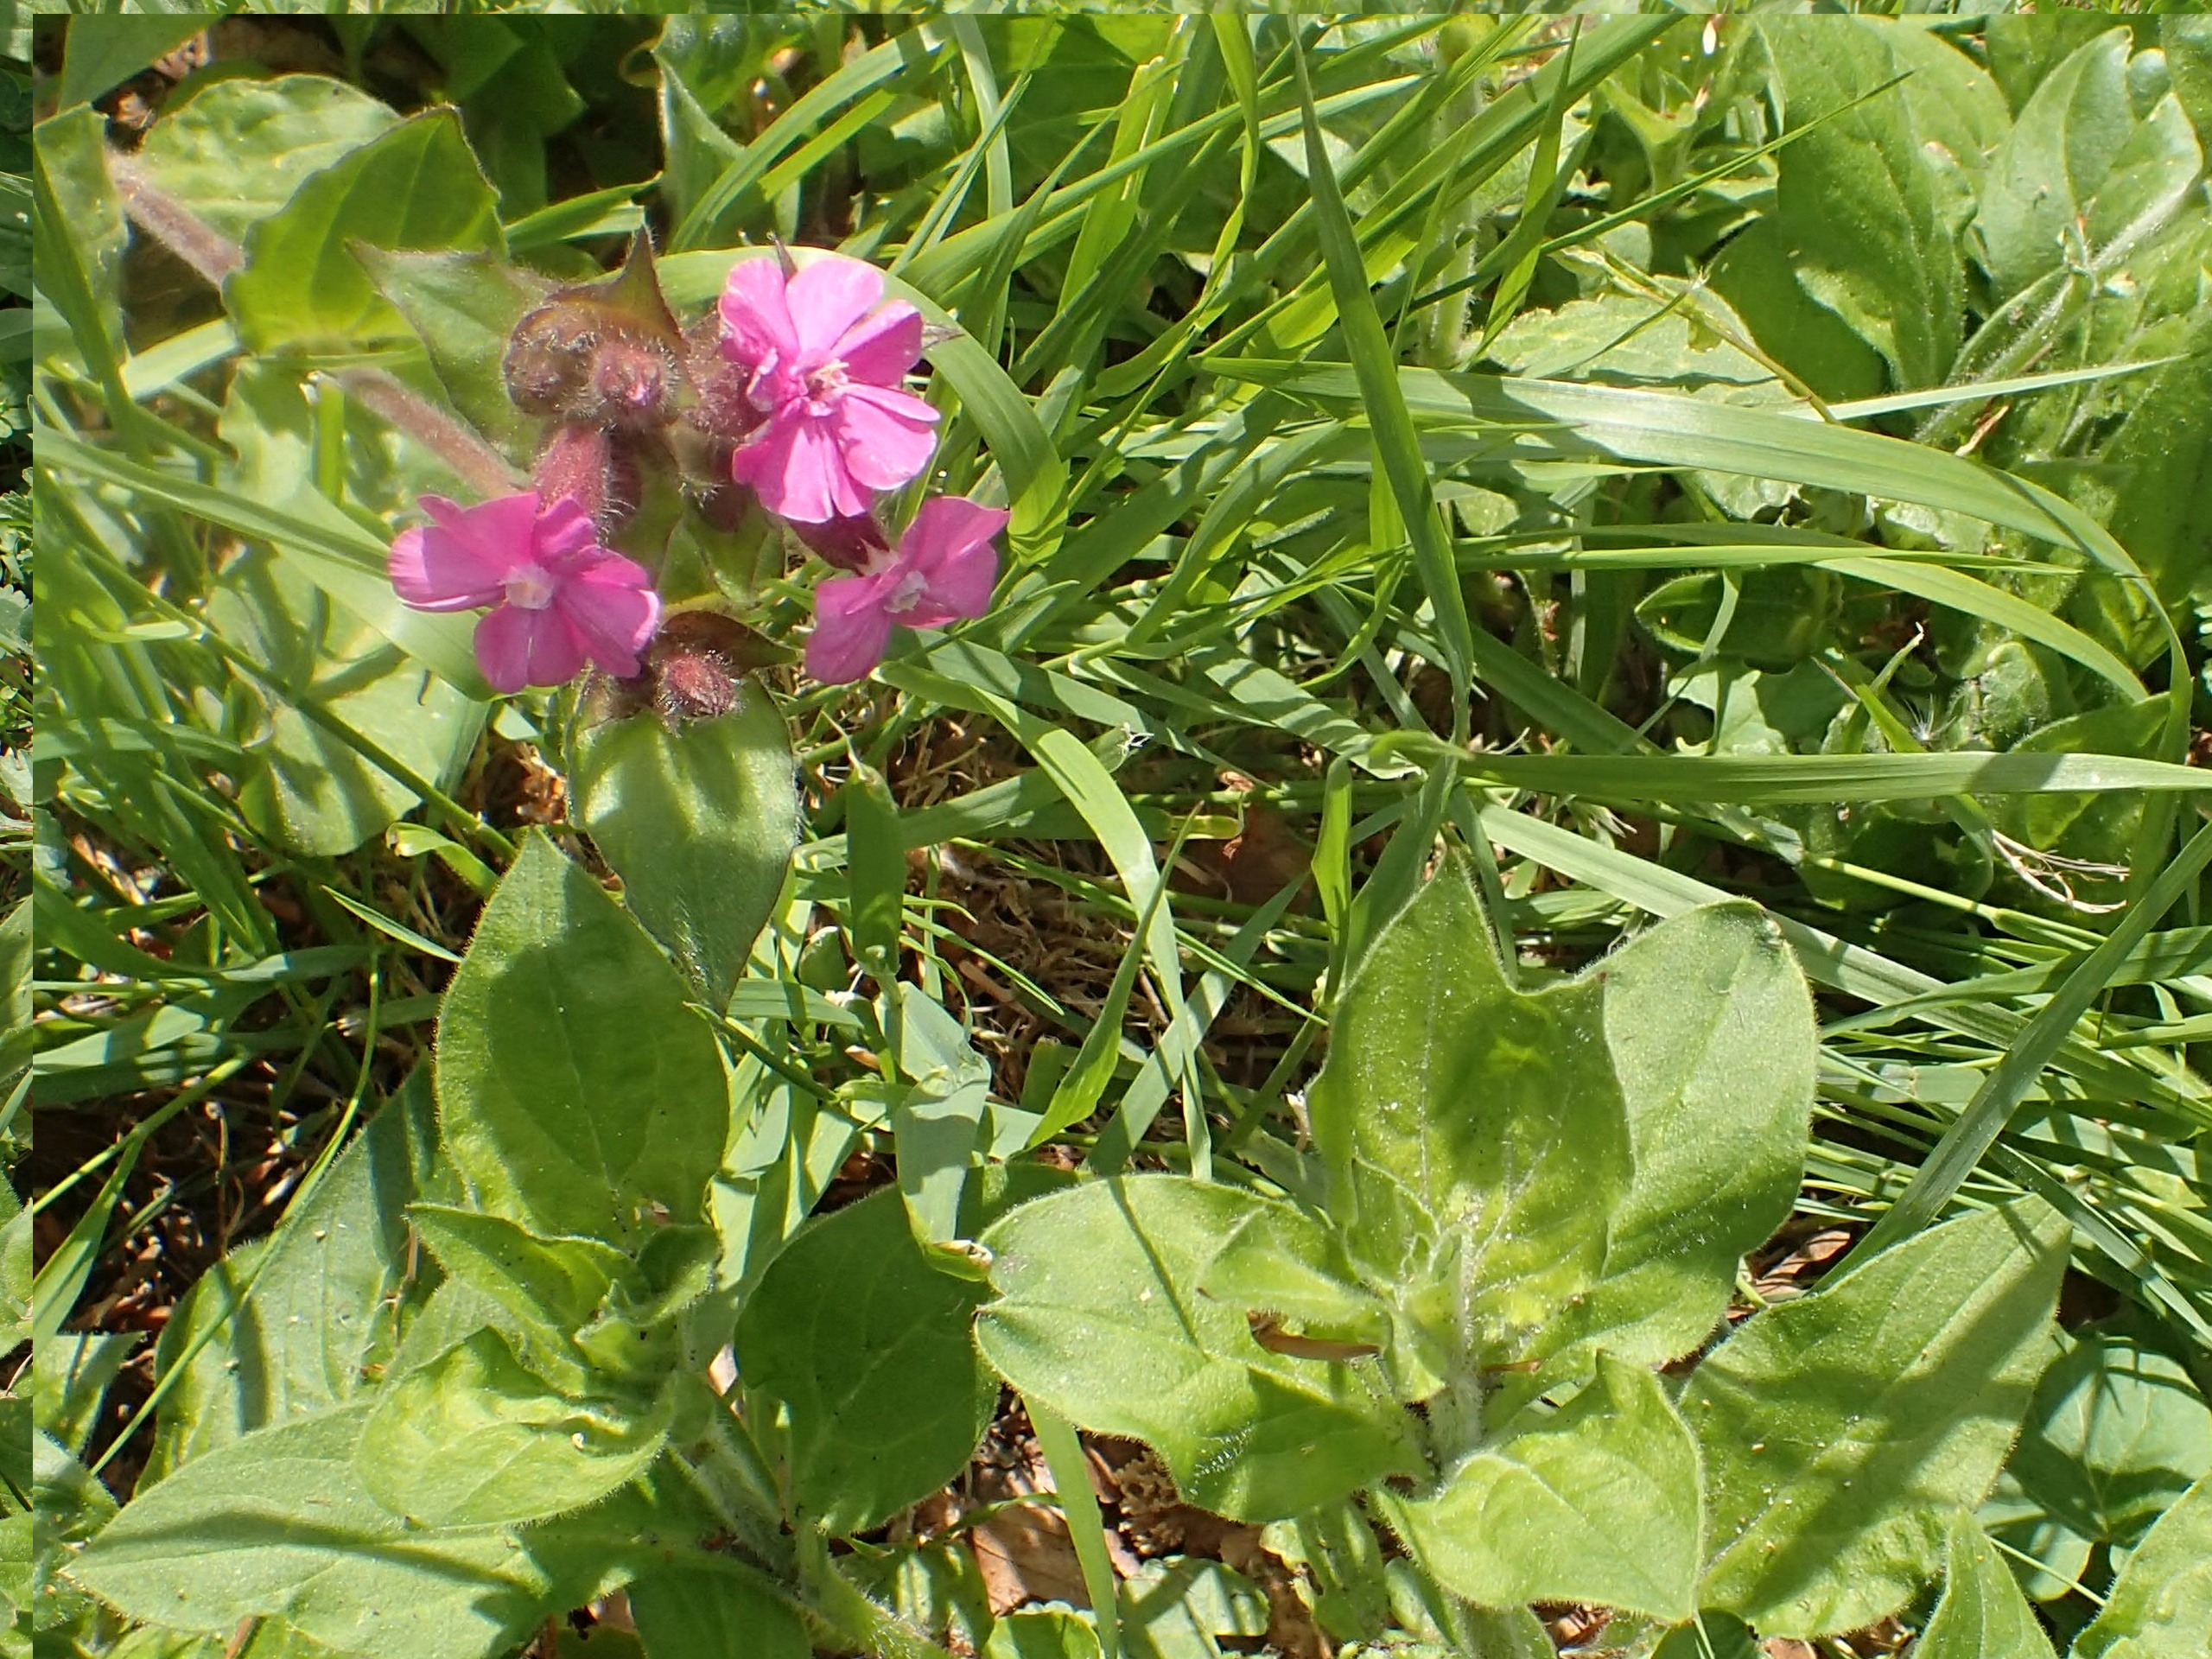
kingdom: Plantae
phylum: Tracheophyta
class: Magnoliopsida
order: Caryophyllales
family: Caryophyllaceae
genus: Silene
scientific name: Silene dioica
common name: Dagpragtstjerne
